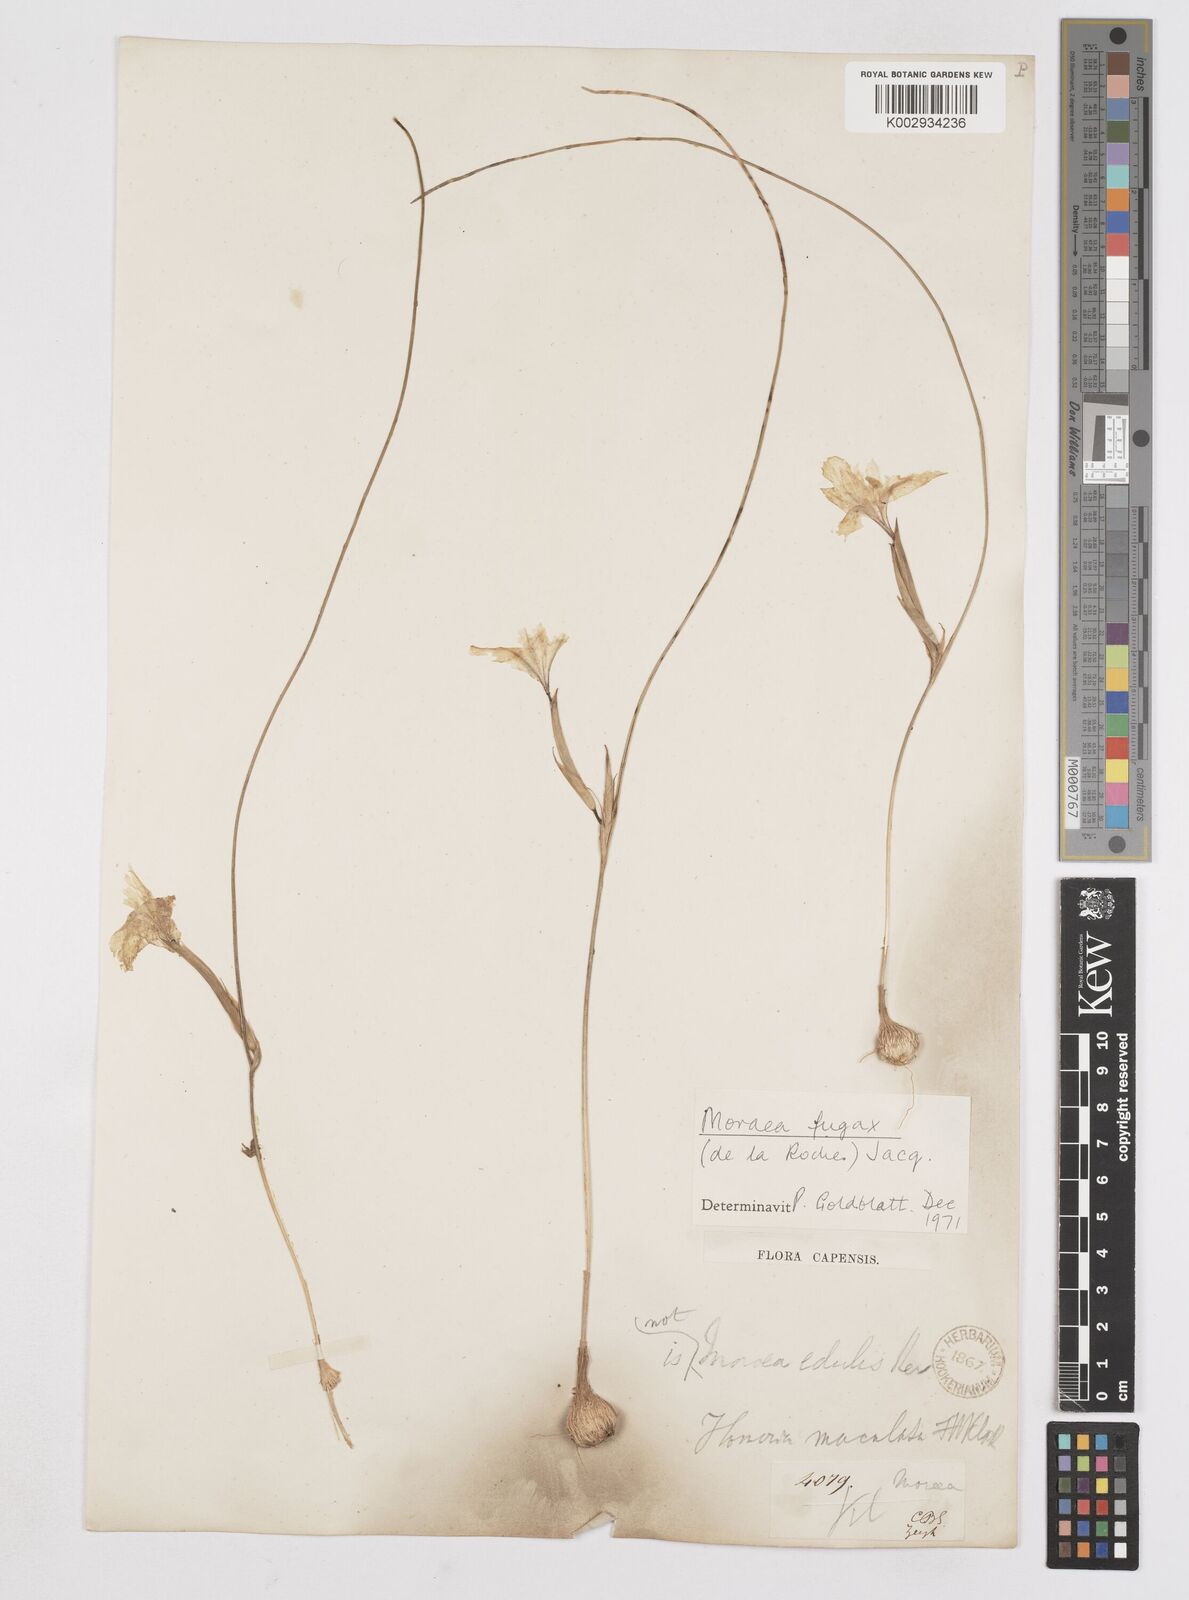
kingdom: Plantae
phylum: Tracheophyta
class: Liliopsida
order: Asparagales
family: Iridaceae
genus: Moraea
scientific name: Moraea fugax
